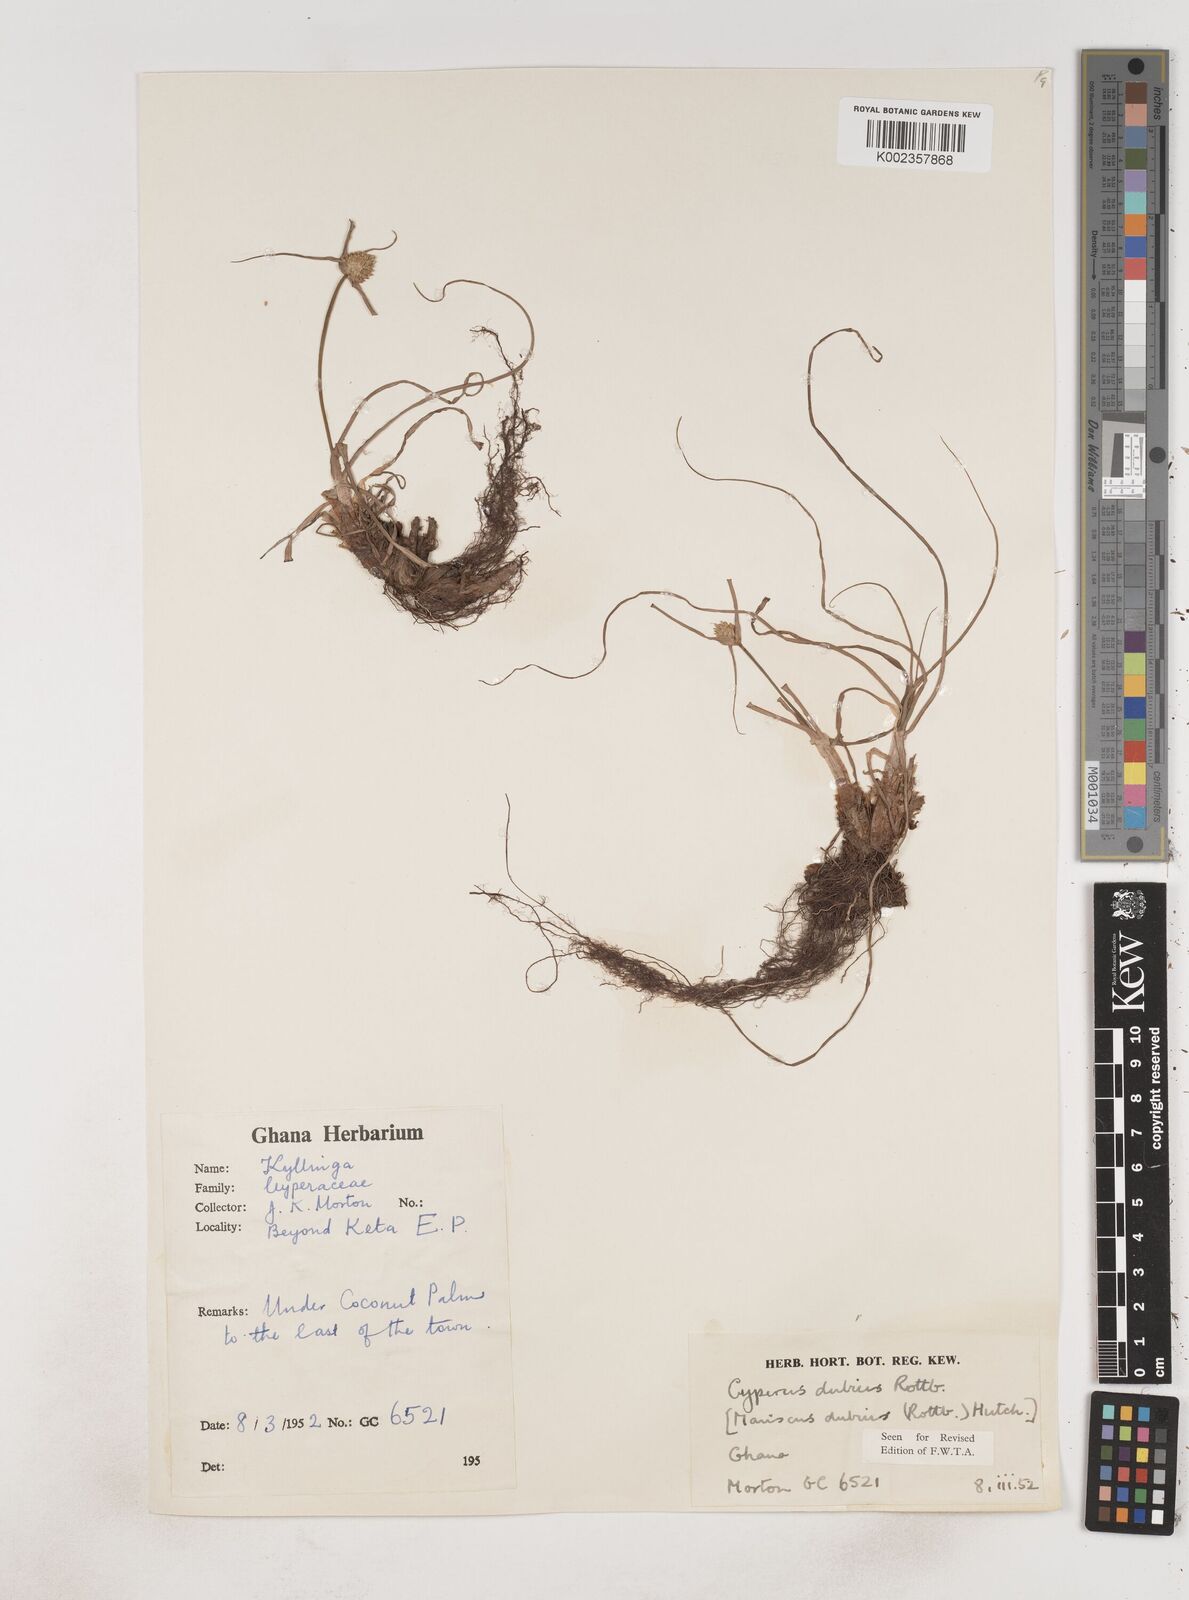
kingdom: Plantae
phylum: Tracheophyta
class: Liliopsida
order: Poales
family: Cyperaceae
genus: Cyperus
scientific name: Cyperus dubius
